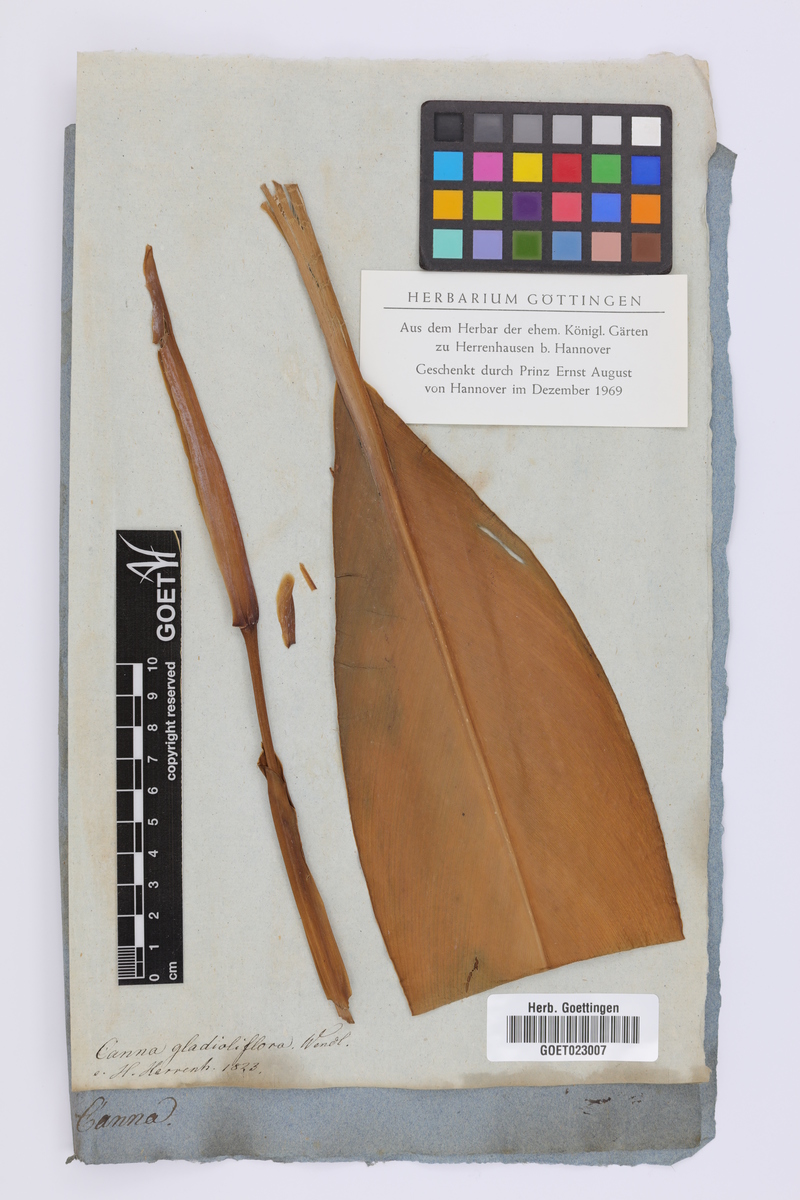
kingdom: Plantae
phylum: Tracheophyta
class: Liliopsida
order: Zingiberales
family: Cannaceae
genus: Canna
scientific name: Canna
